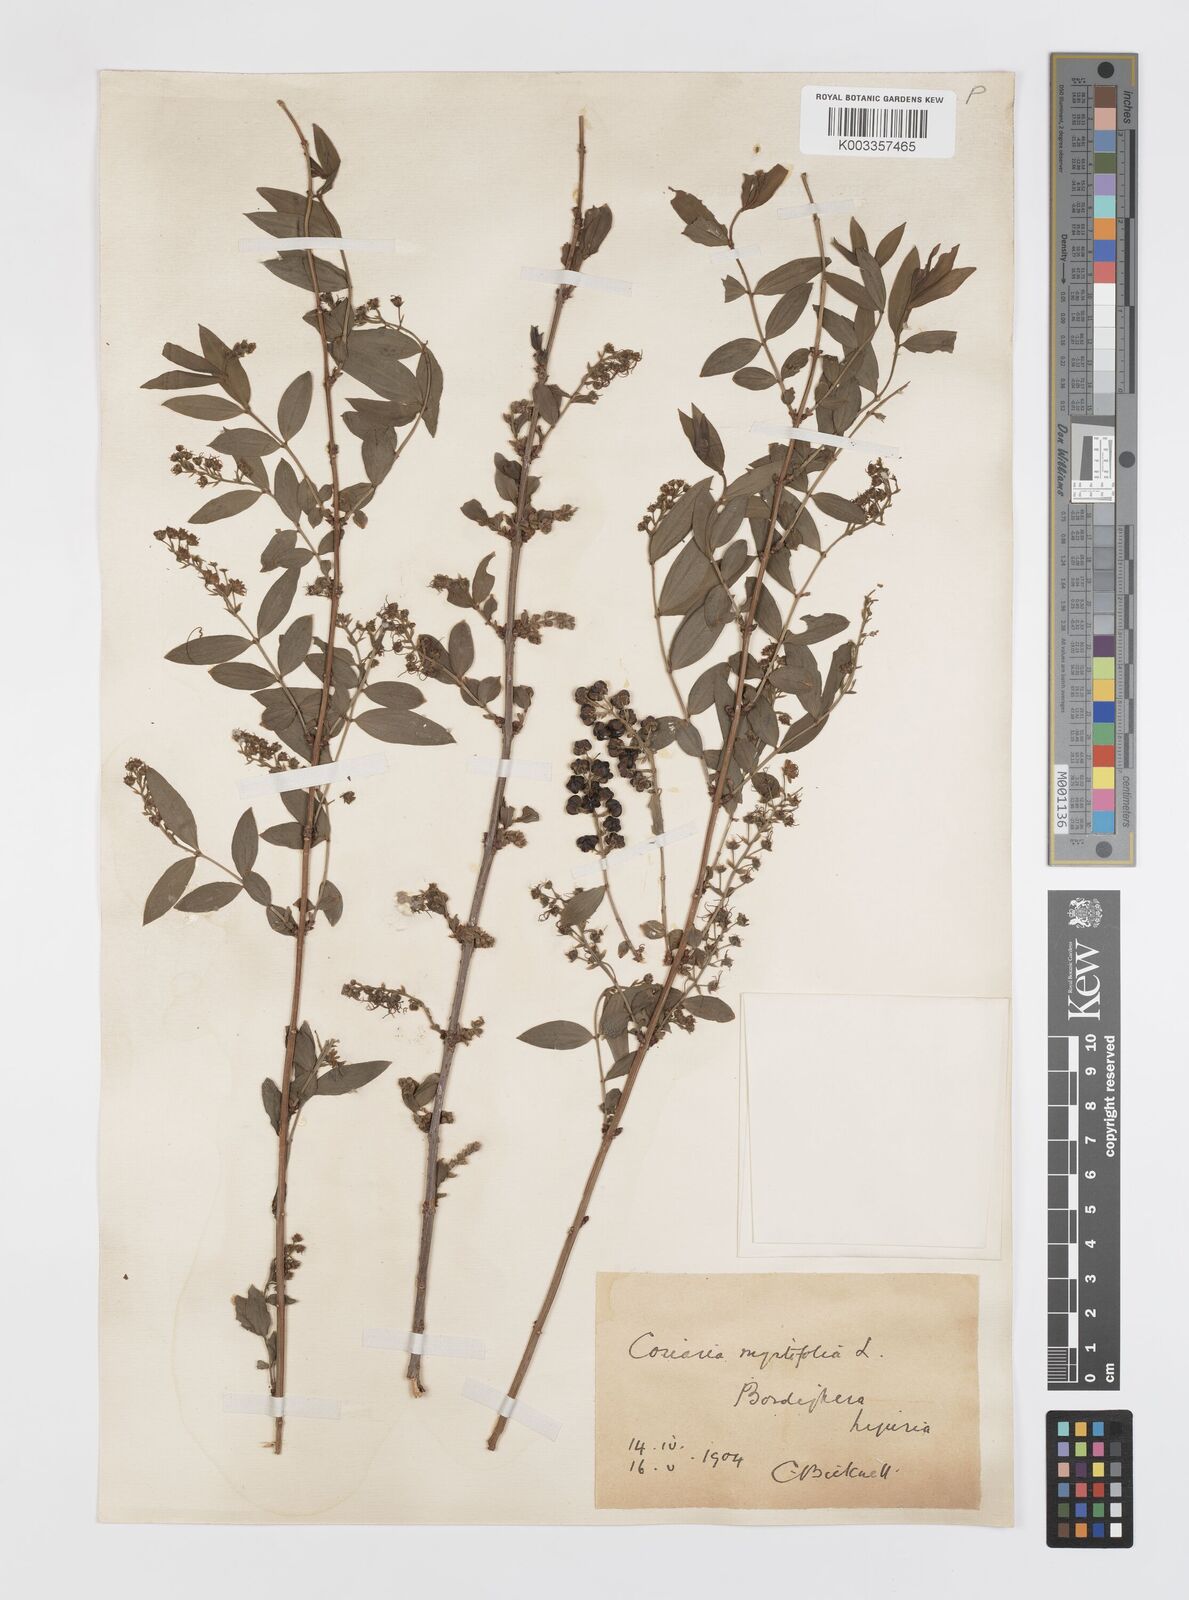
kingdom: Plantae
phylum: Tracheophyta
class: Magnoliopsida
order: Cucurbitales
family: Coriariaceae
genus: Coriaria
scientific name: Coriaria myrtifolia
